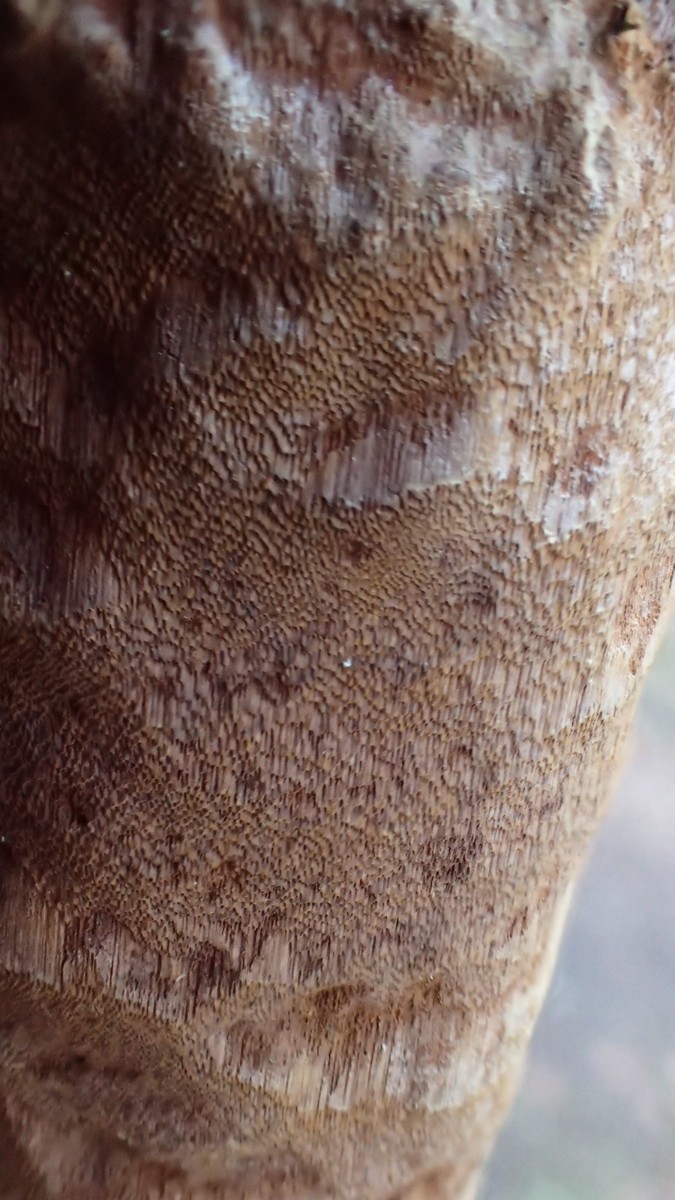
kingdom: Fungi
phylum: Basidiomycota
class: Agaricomycetes
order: Hymenochaetales
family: Hymenochaetaceae
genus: Fuscoporia
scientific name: Fuscoporia ferrea
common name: skorpe-ildporesvamp
